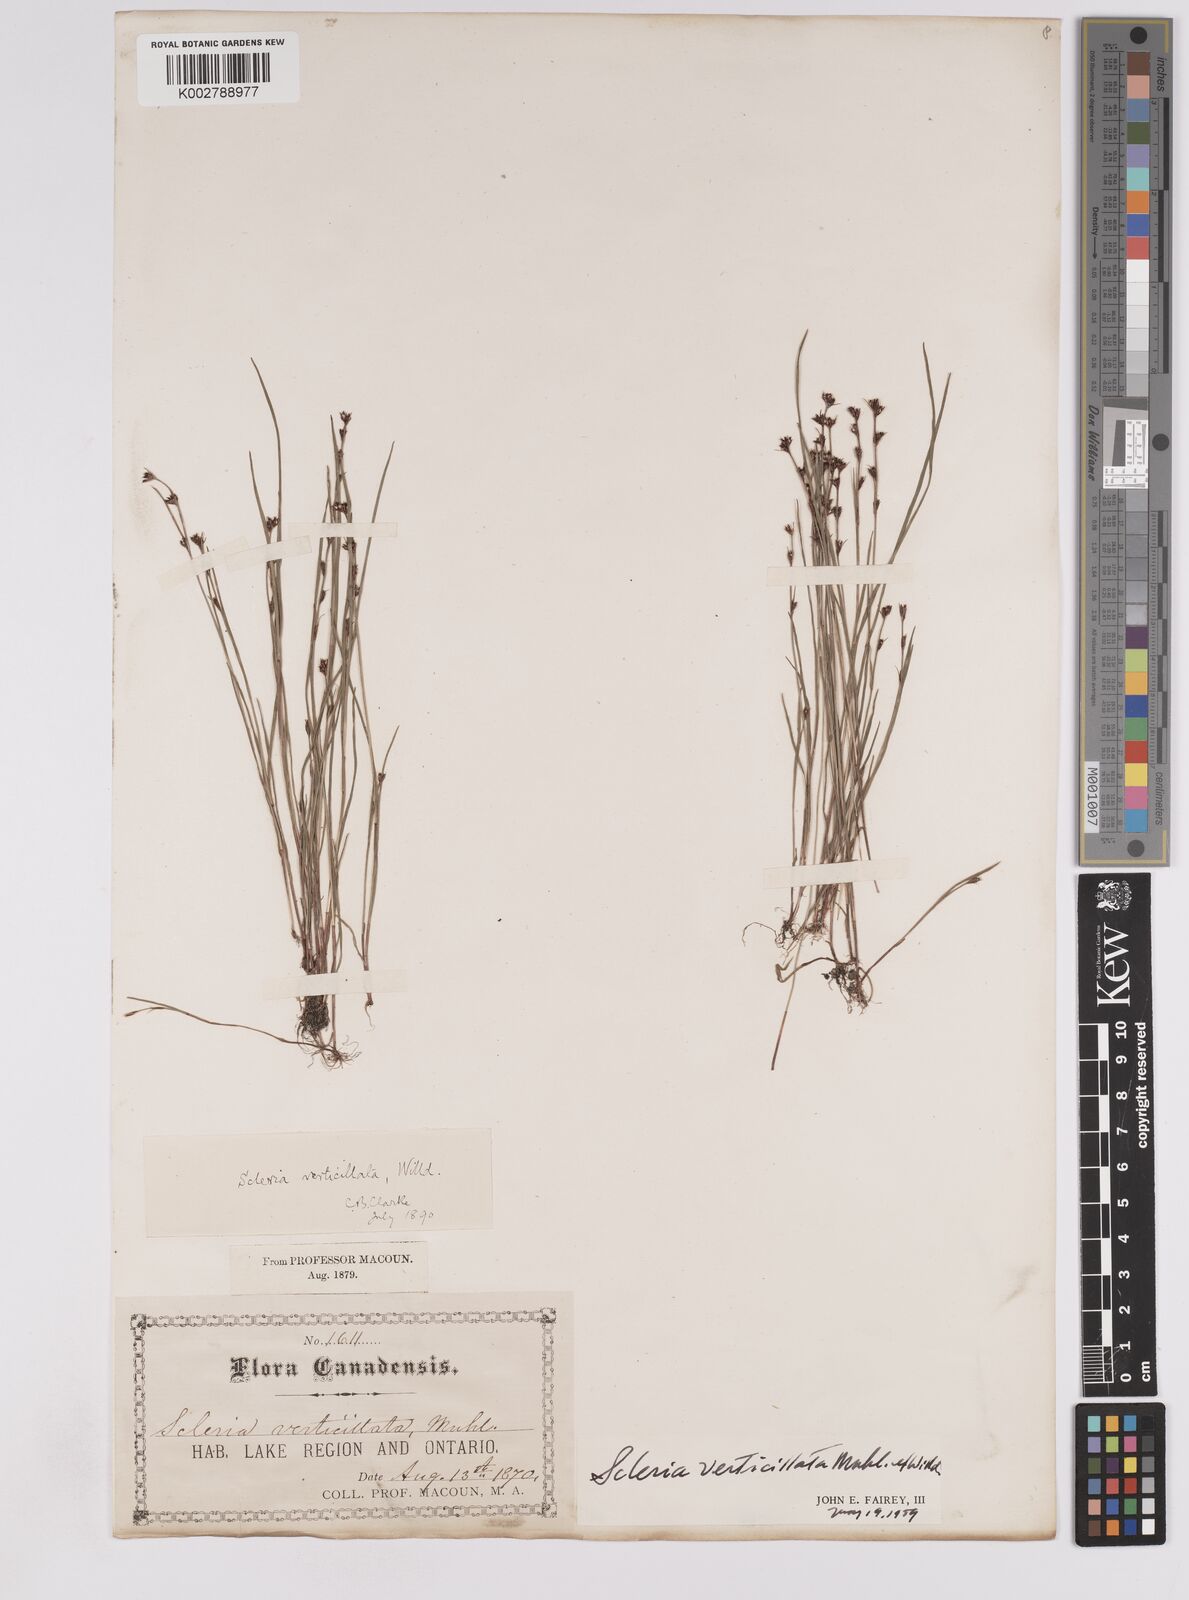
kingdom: Plantae
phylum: Tracheophyta
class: Liliopsida
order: Poales
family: Cyperaceae
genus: Scleria
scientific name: Scleria verticillata
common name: Low nutrush
